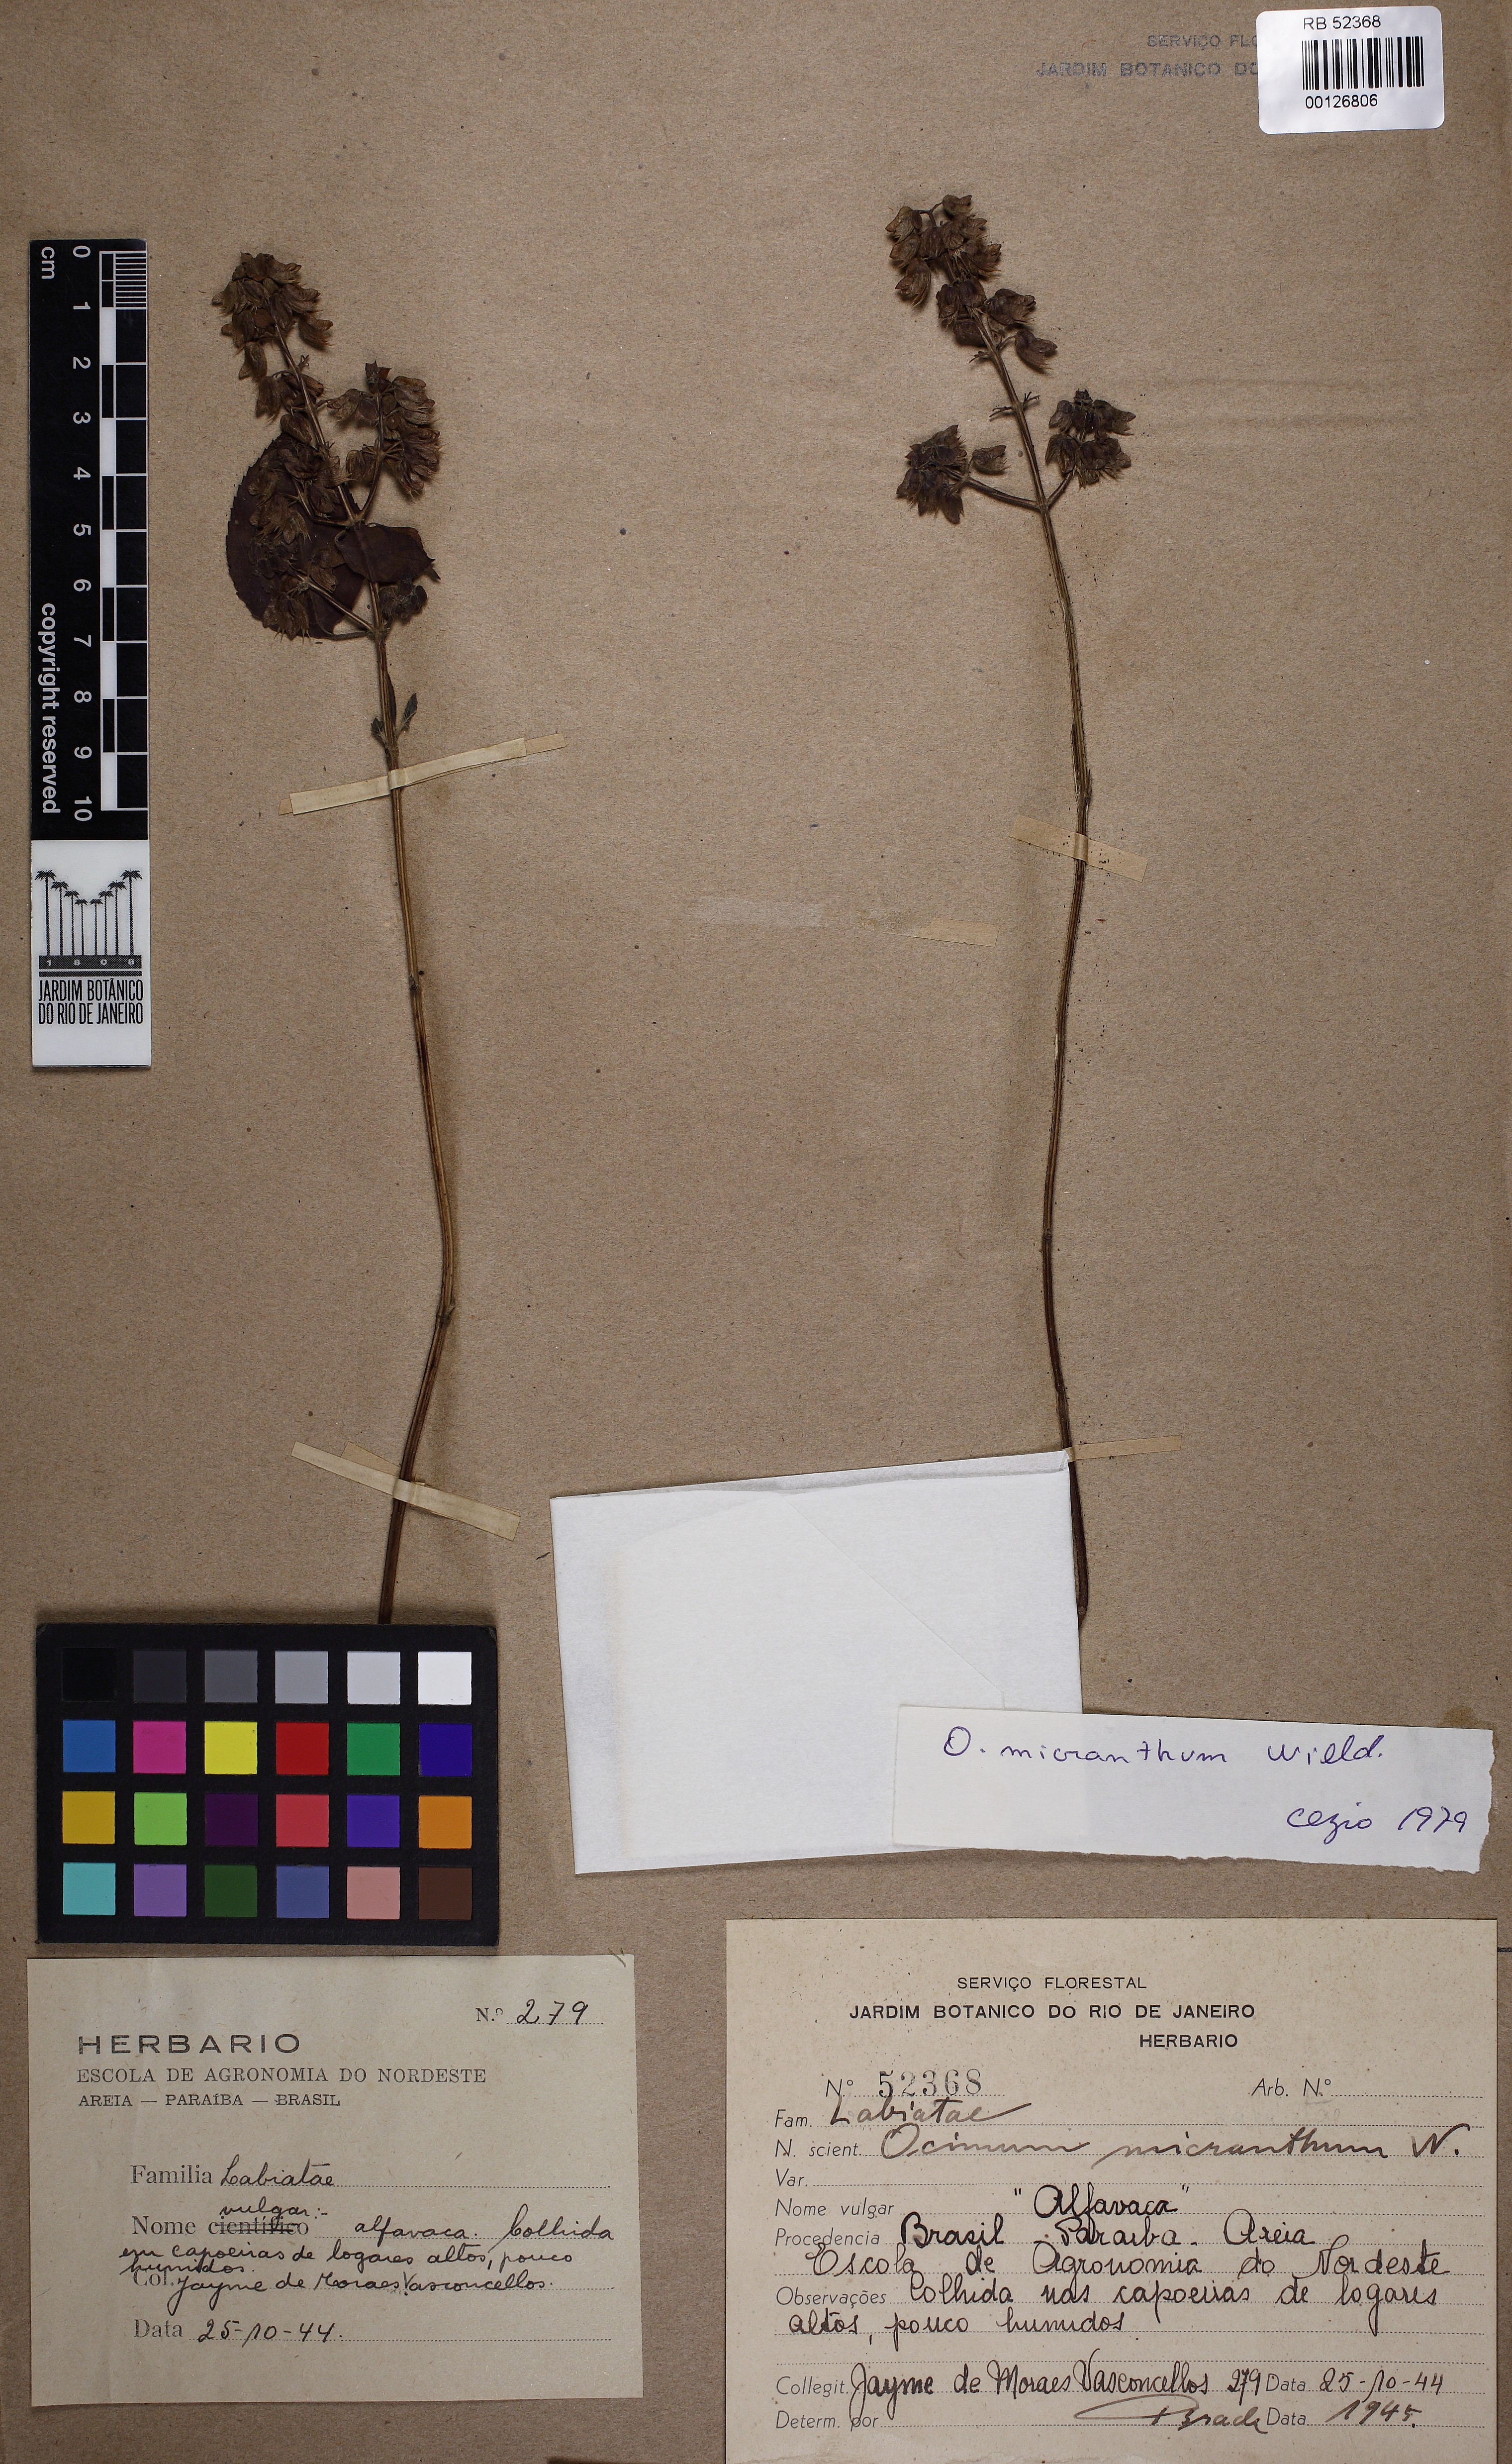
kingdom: Plantae
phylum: Tracheophyta
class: Magnoliopsida
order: Lamiales
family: Lamiaceae
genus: Ocimum
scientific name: Ocimum campechianum
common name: Mosquito basil
